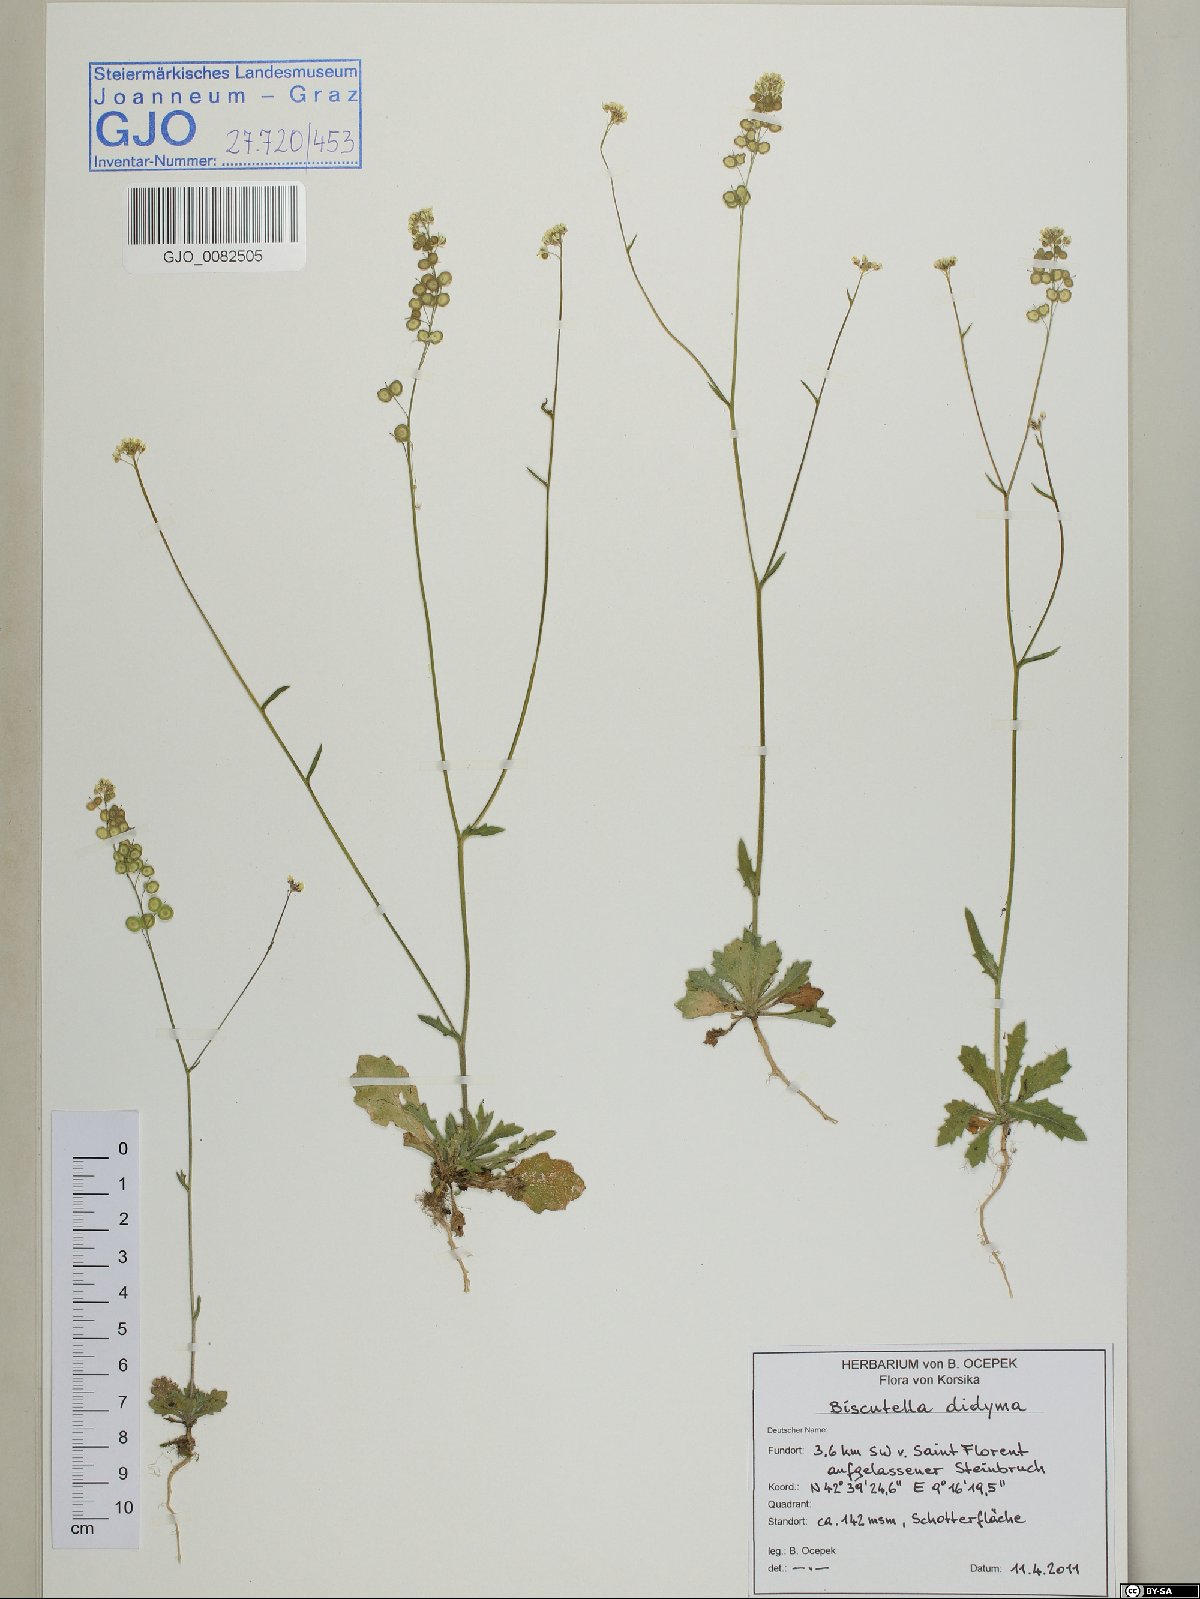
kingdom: Plantae
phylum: Tracheophyta
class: Magnoliopsida
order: Brassicales
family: Brassicaceae
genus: Biscutella
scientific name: Biscutella didyma
